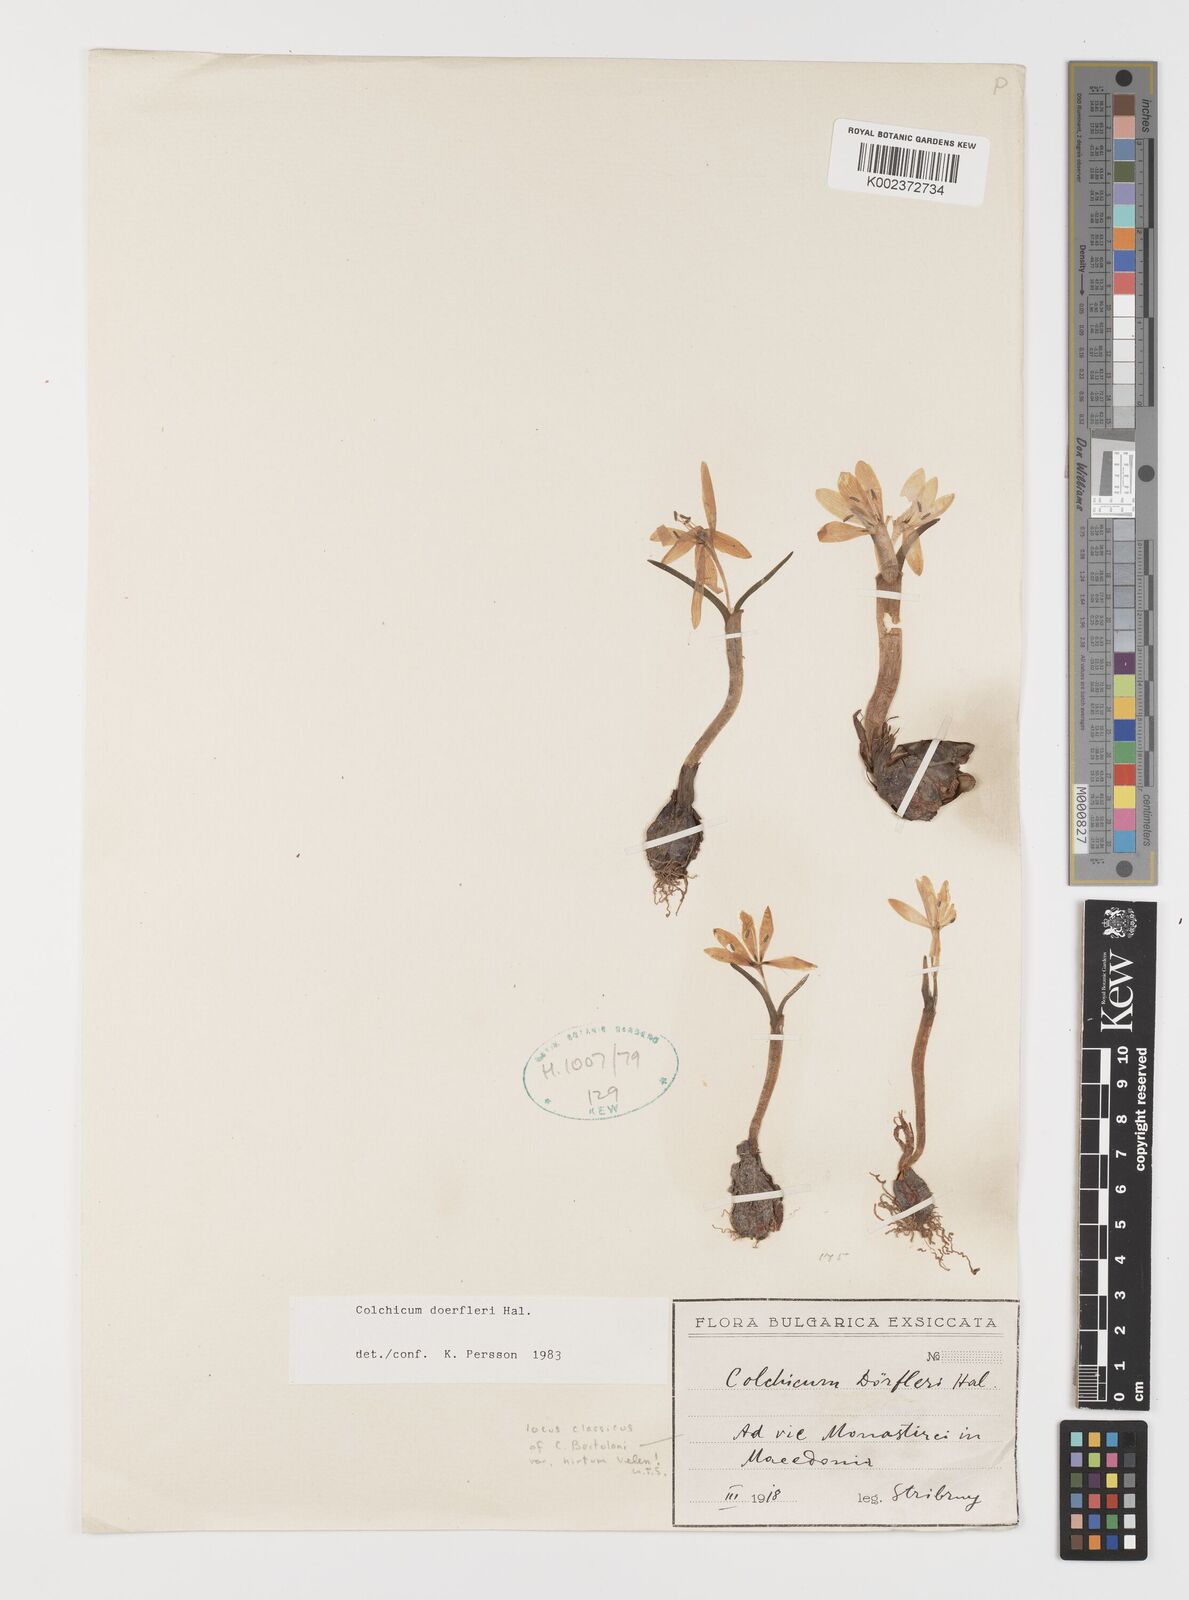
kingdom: Plantae
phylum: Tracheophyta
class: Liliopsida
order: Liliales
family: Colchicaceae
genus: Colchicum
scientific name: Colchicum doerfleri
